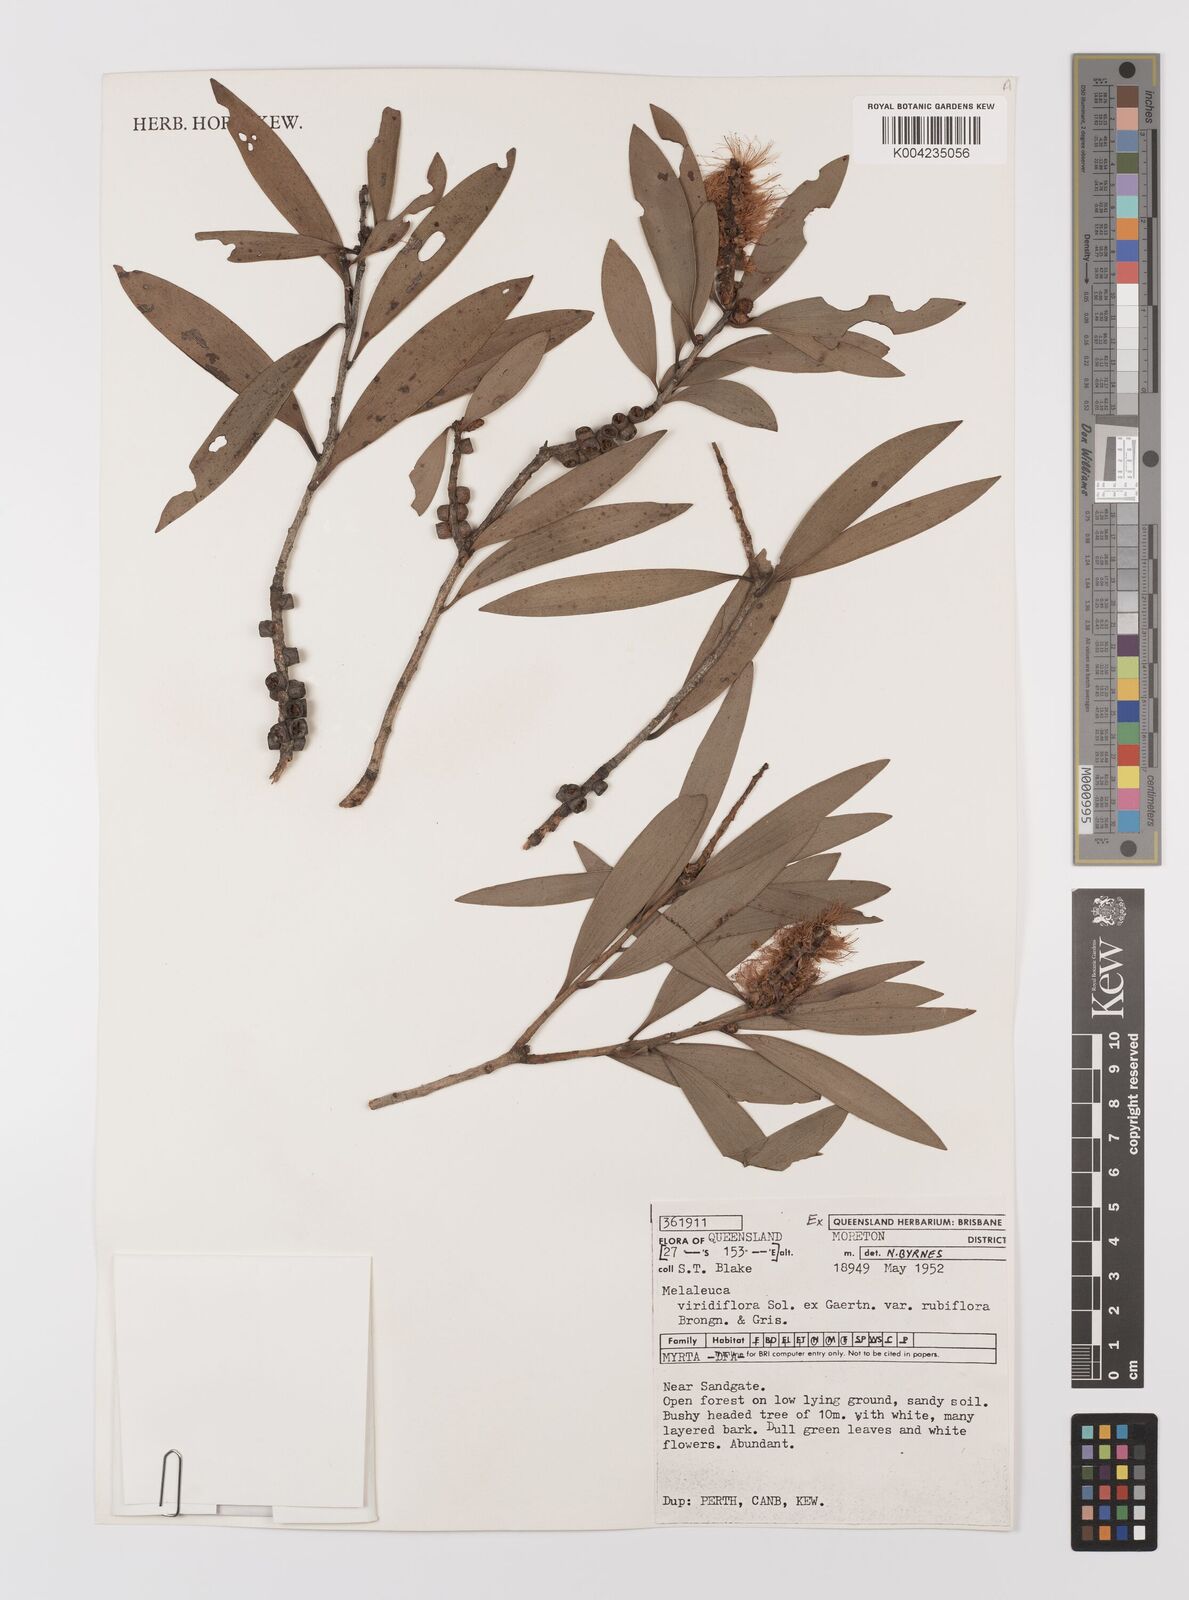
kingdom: Plantae
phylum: Tracheophyta
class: Magnoliopsida
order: Myrtales
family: Myrtaceae
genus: Melaleuca
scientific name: Melaleuca viridiflora
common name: Brown-leaved paperbark
